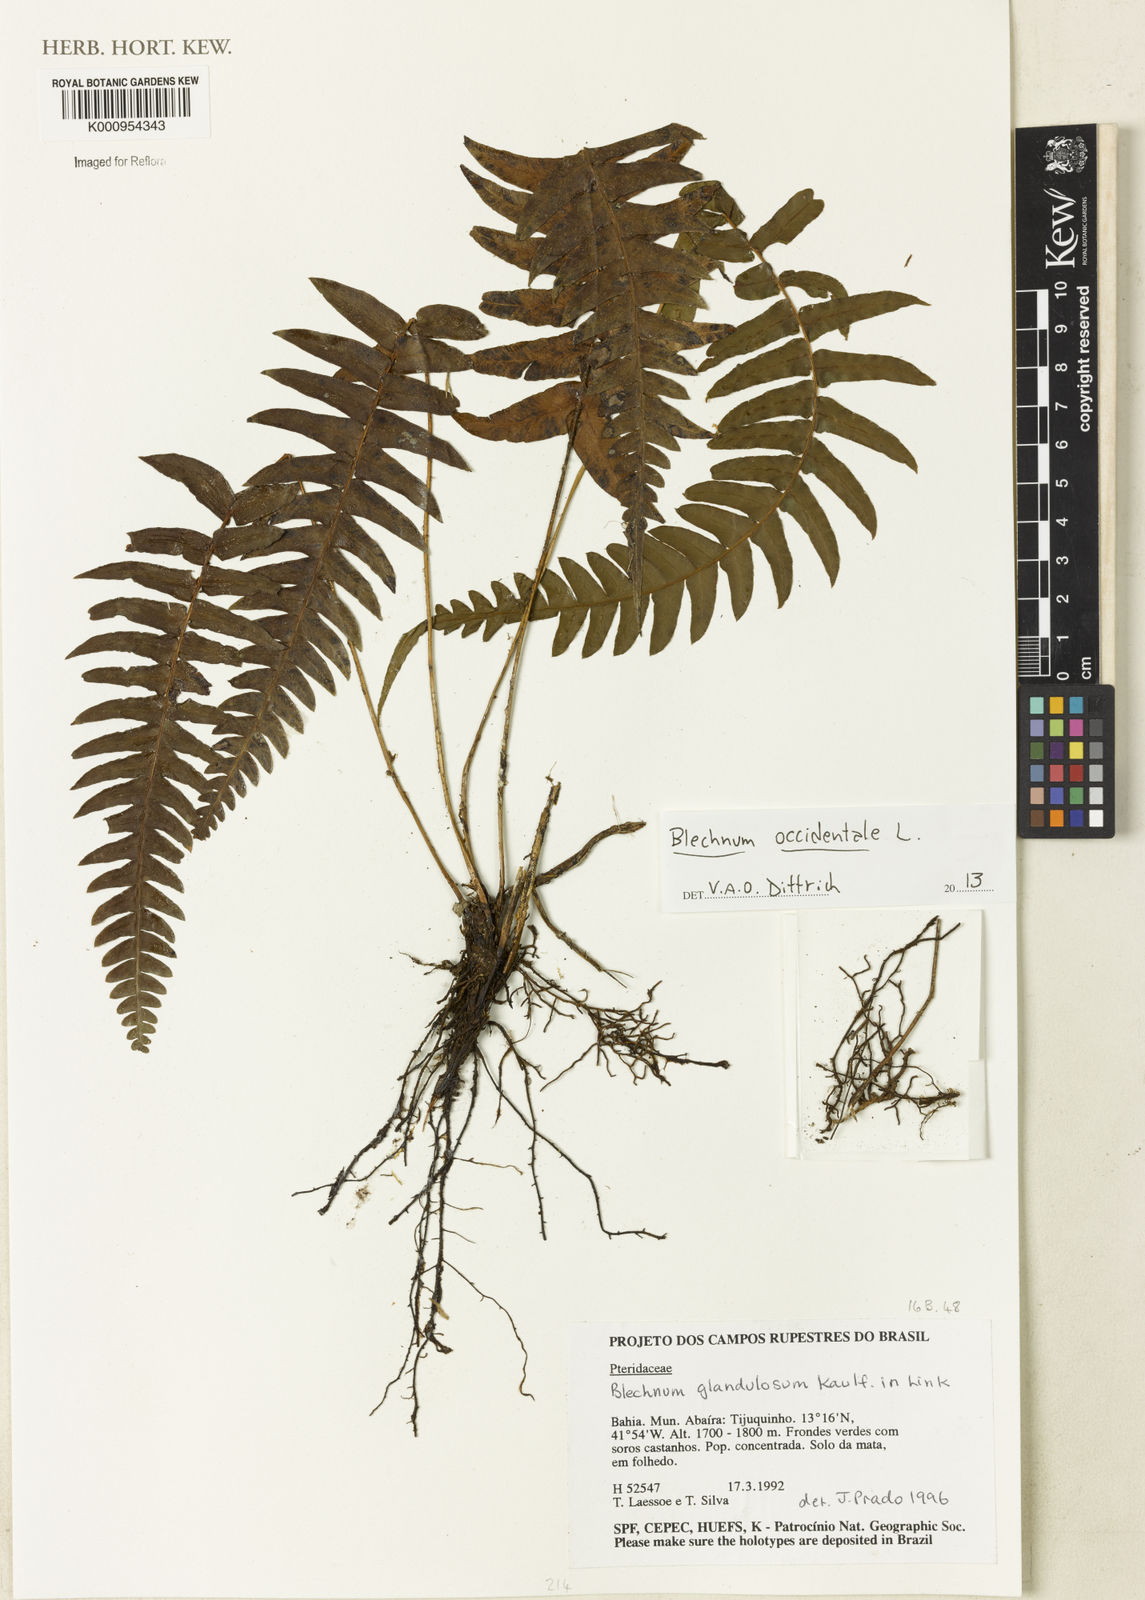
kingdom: Plantae
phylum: Tracheophyta
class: Polypodiopsida
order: Polypodiales
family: Blechnaceae
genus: Blechnum
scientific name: Blechnum appendiculatum
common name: Palm fern
